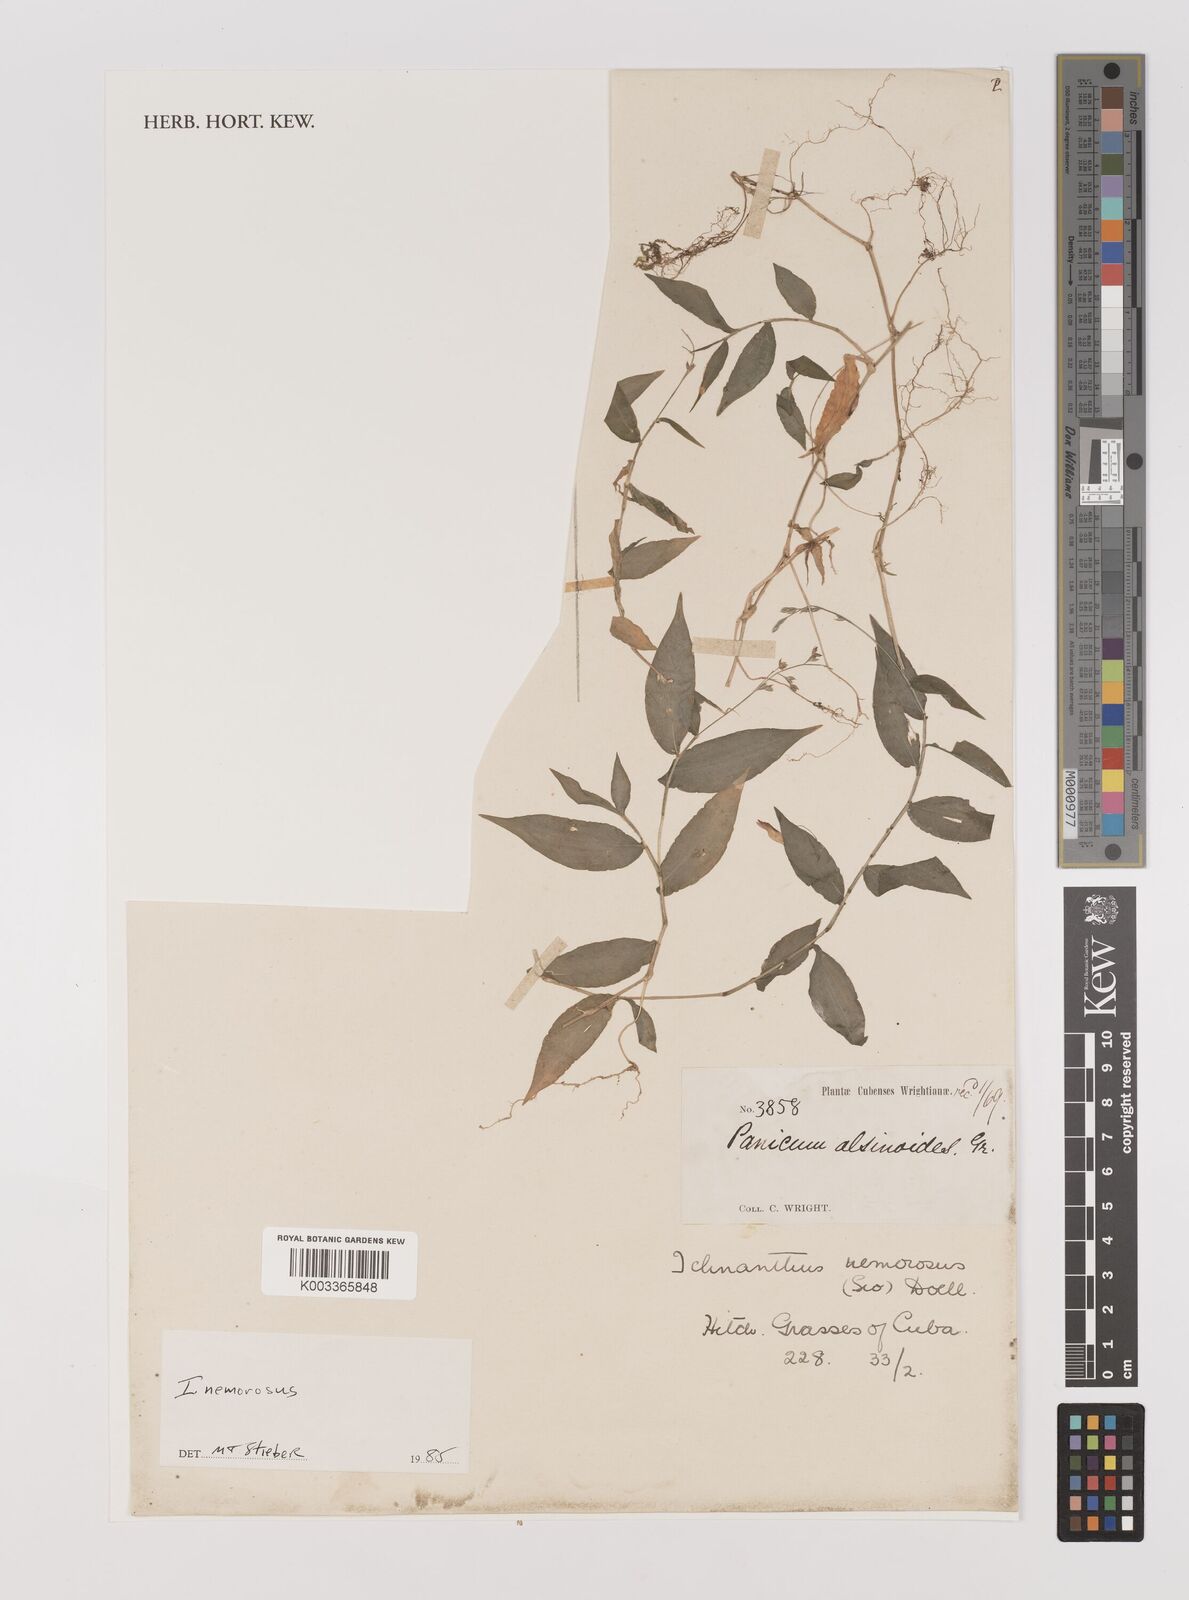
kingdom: Plantae
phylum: Tracheophyta
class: Liliopsida
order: Poales
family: Poaceae
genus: Ichnanthus
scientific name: Ichnanthus nemorosus
